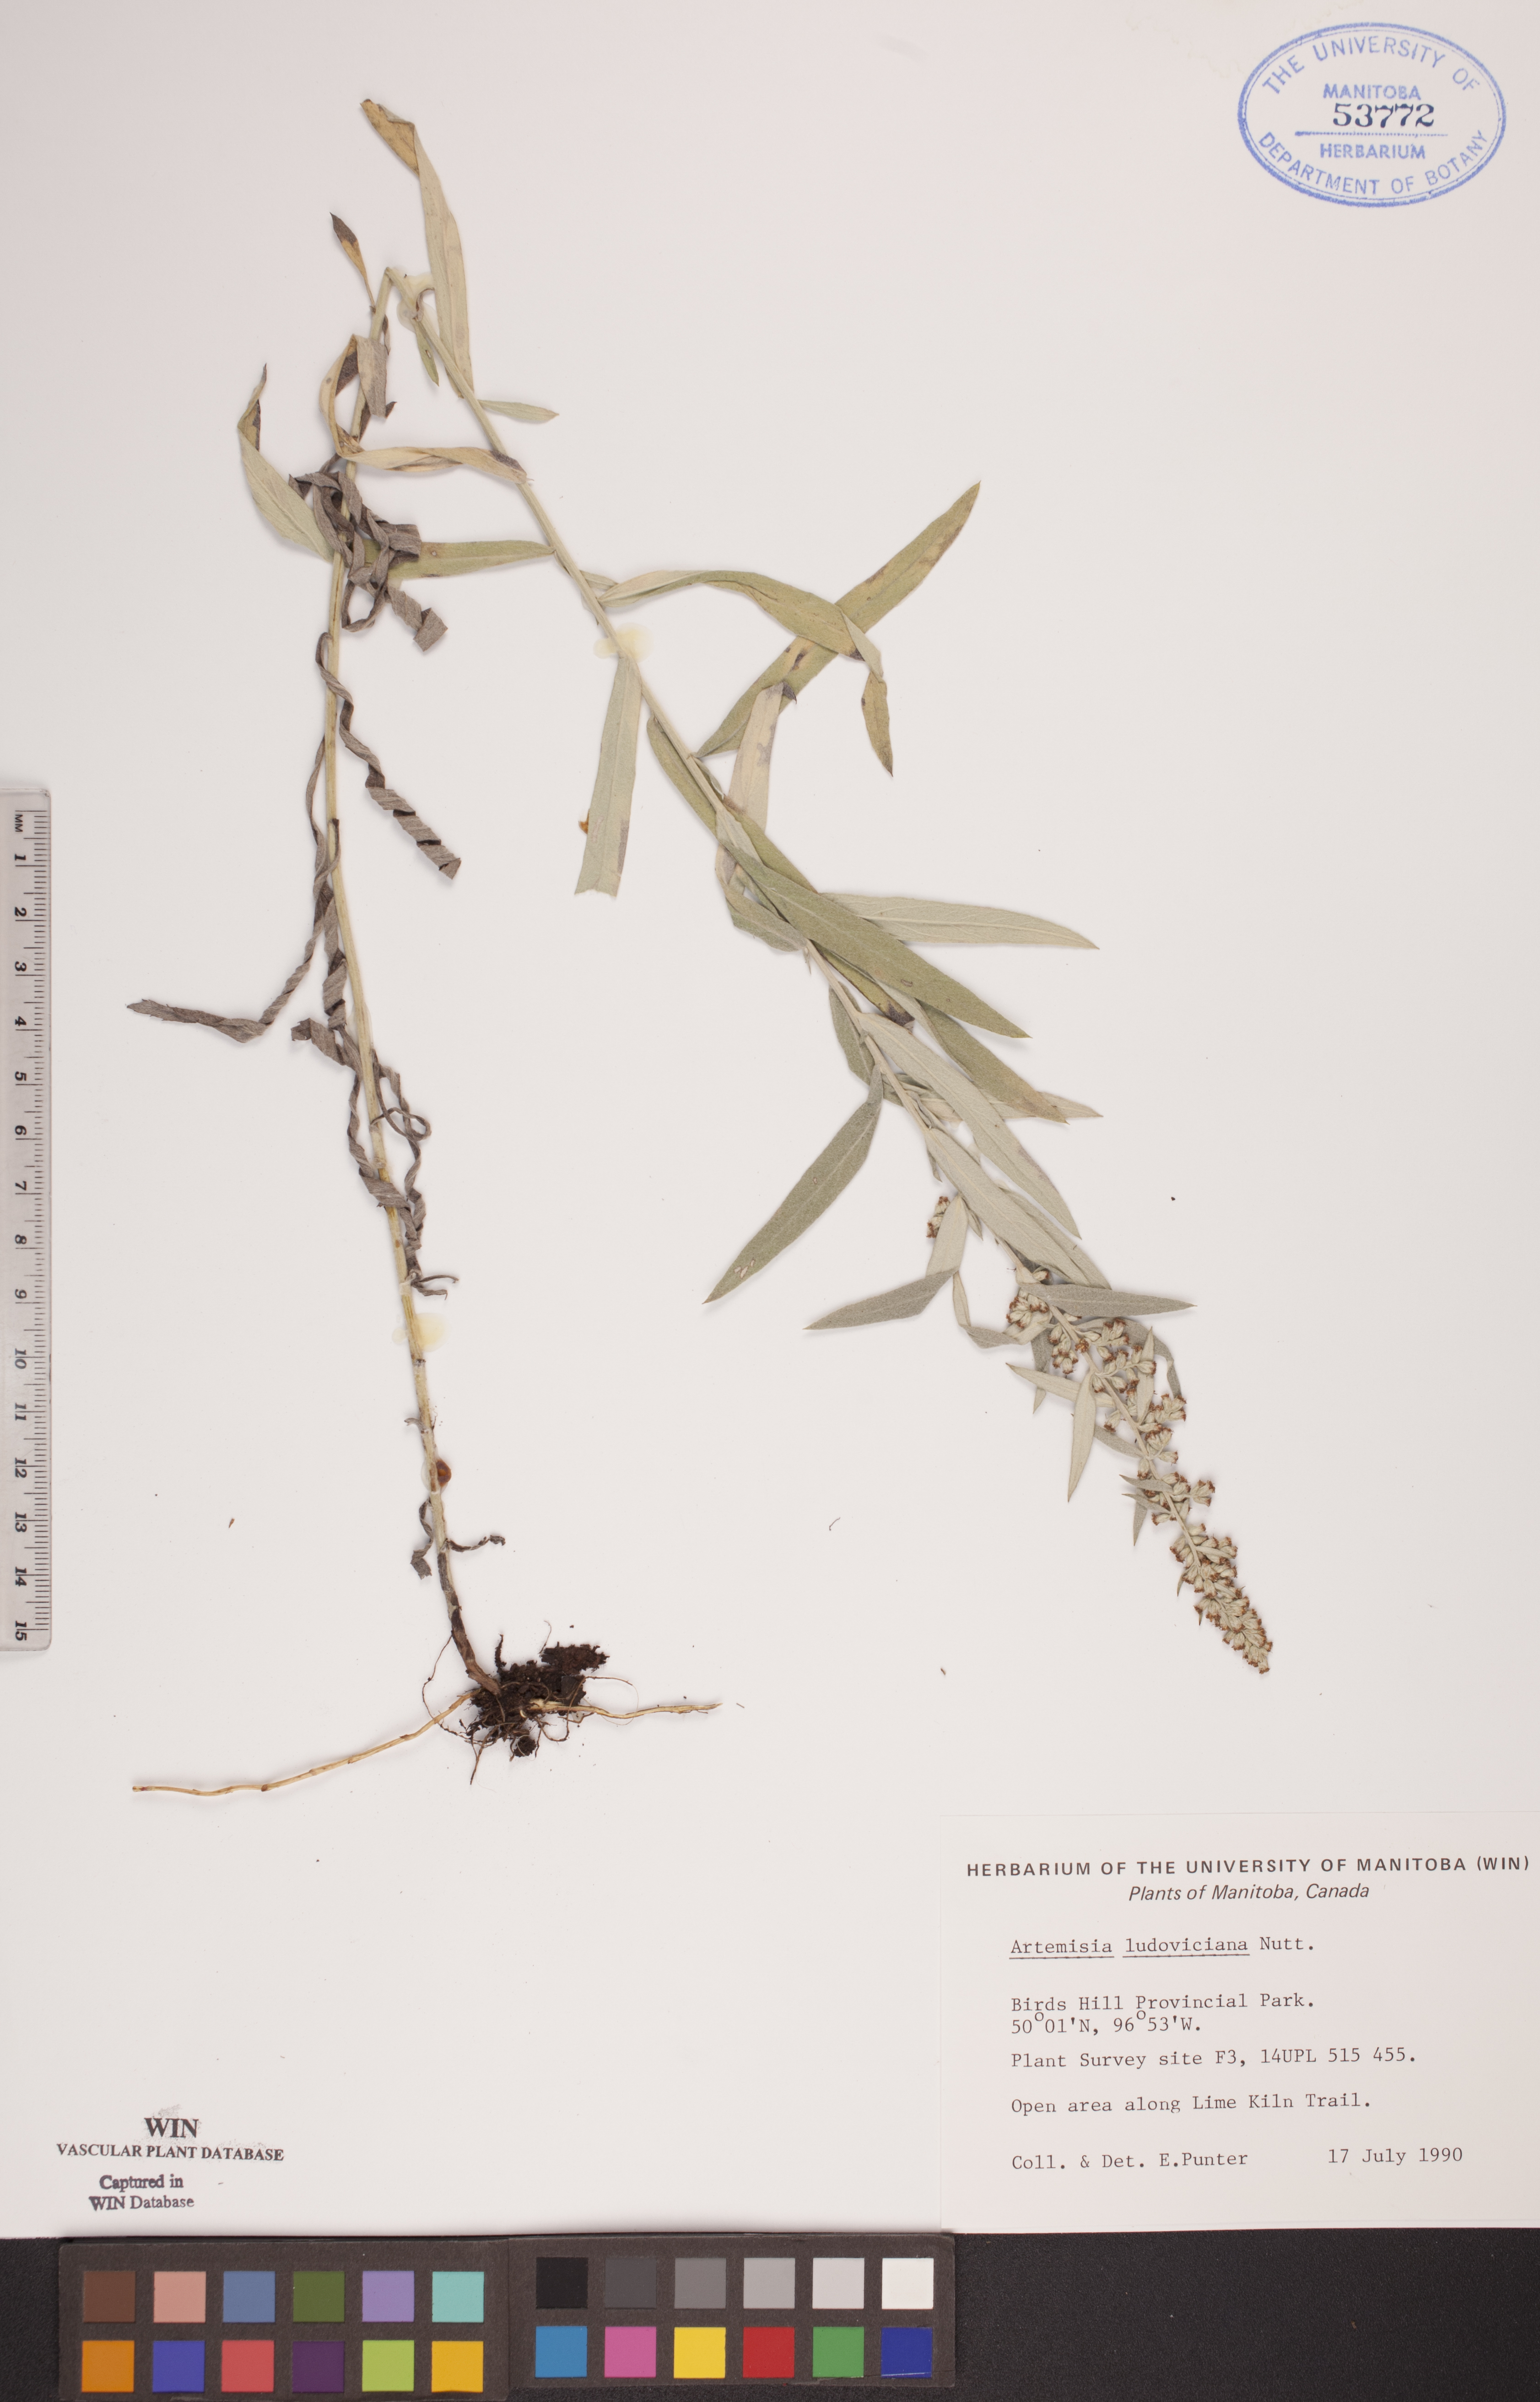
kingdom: Plantae
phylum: Tracheophyta
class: Magnoliopsida
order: Asterales
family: Asteraceae
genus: Artemisia
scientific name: Artemisia ludoviciana
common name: Western mugwort
